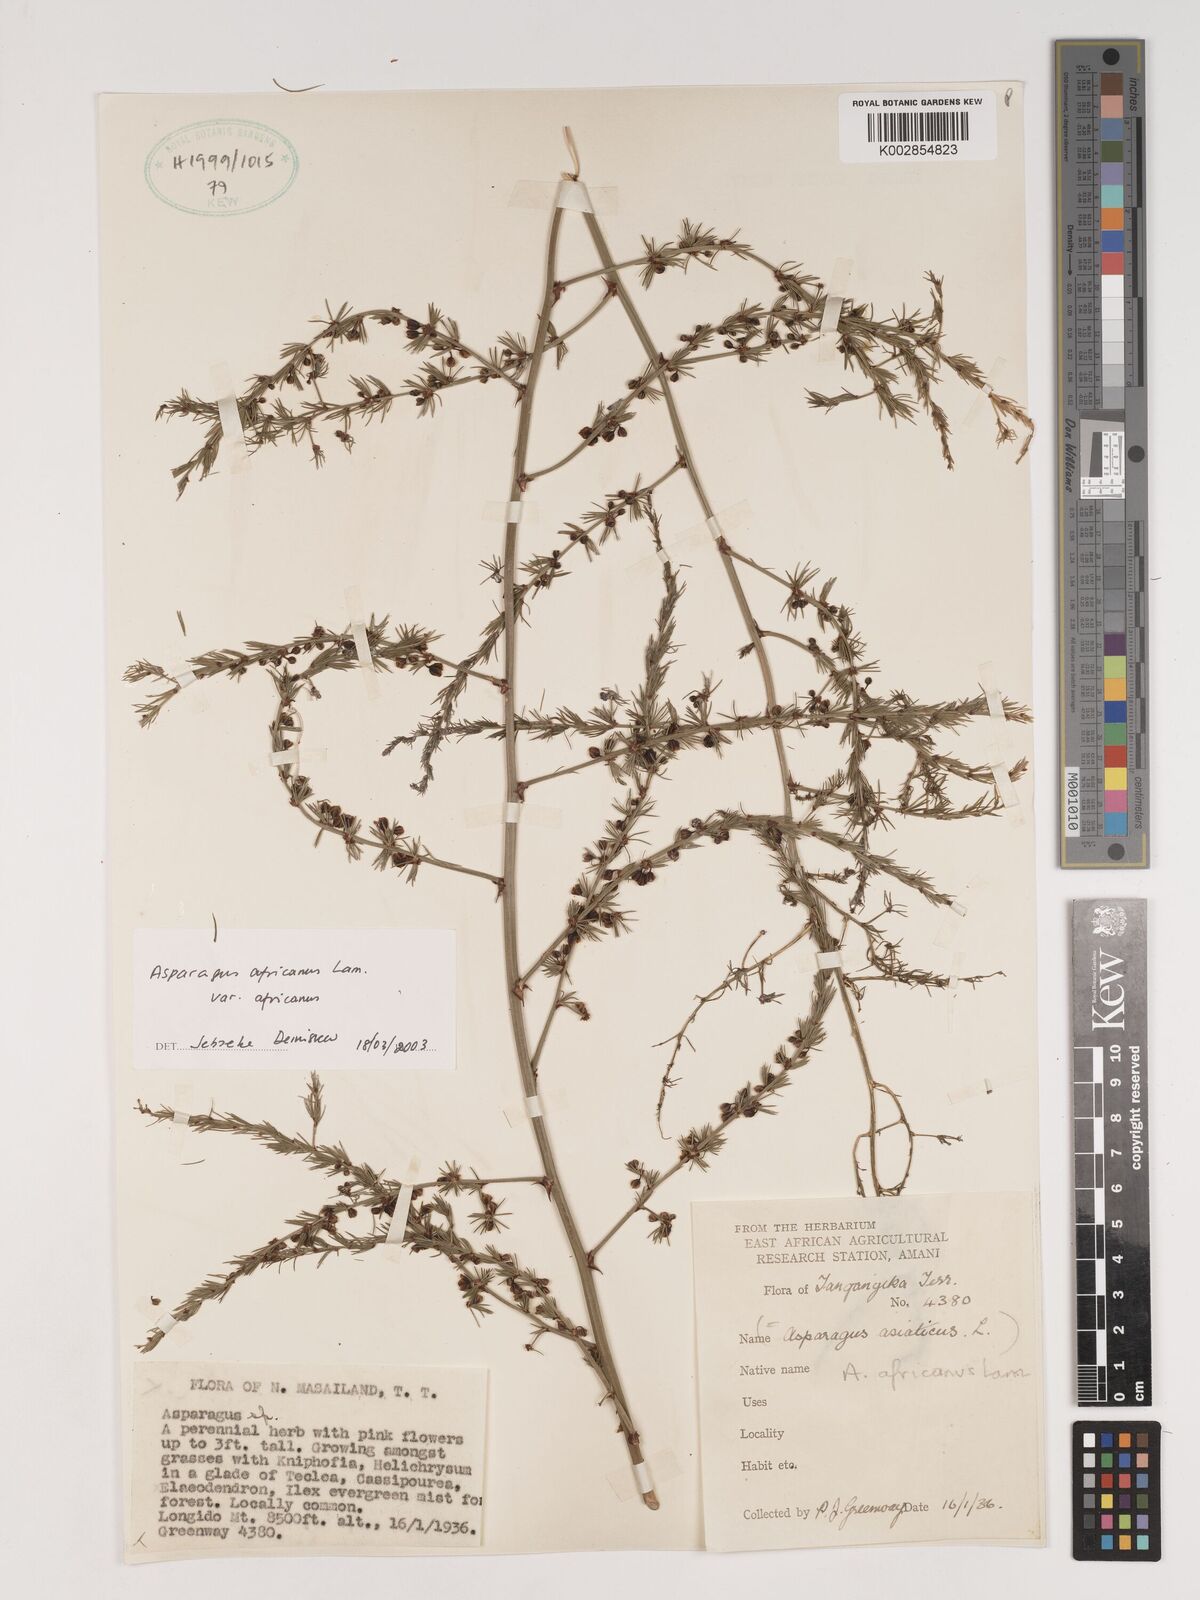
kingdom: Plantae
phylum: Tracheophyta
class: Liliopsida
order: Asparagales
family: Asparagaceae
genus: Asparagus
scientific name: Asparagus africanus
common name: Asparagus-fern
